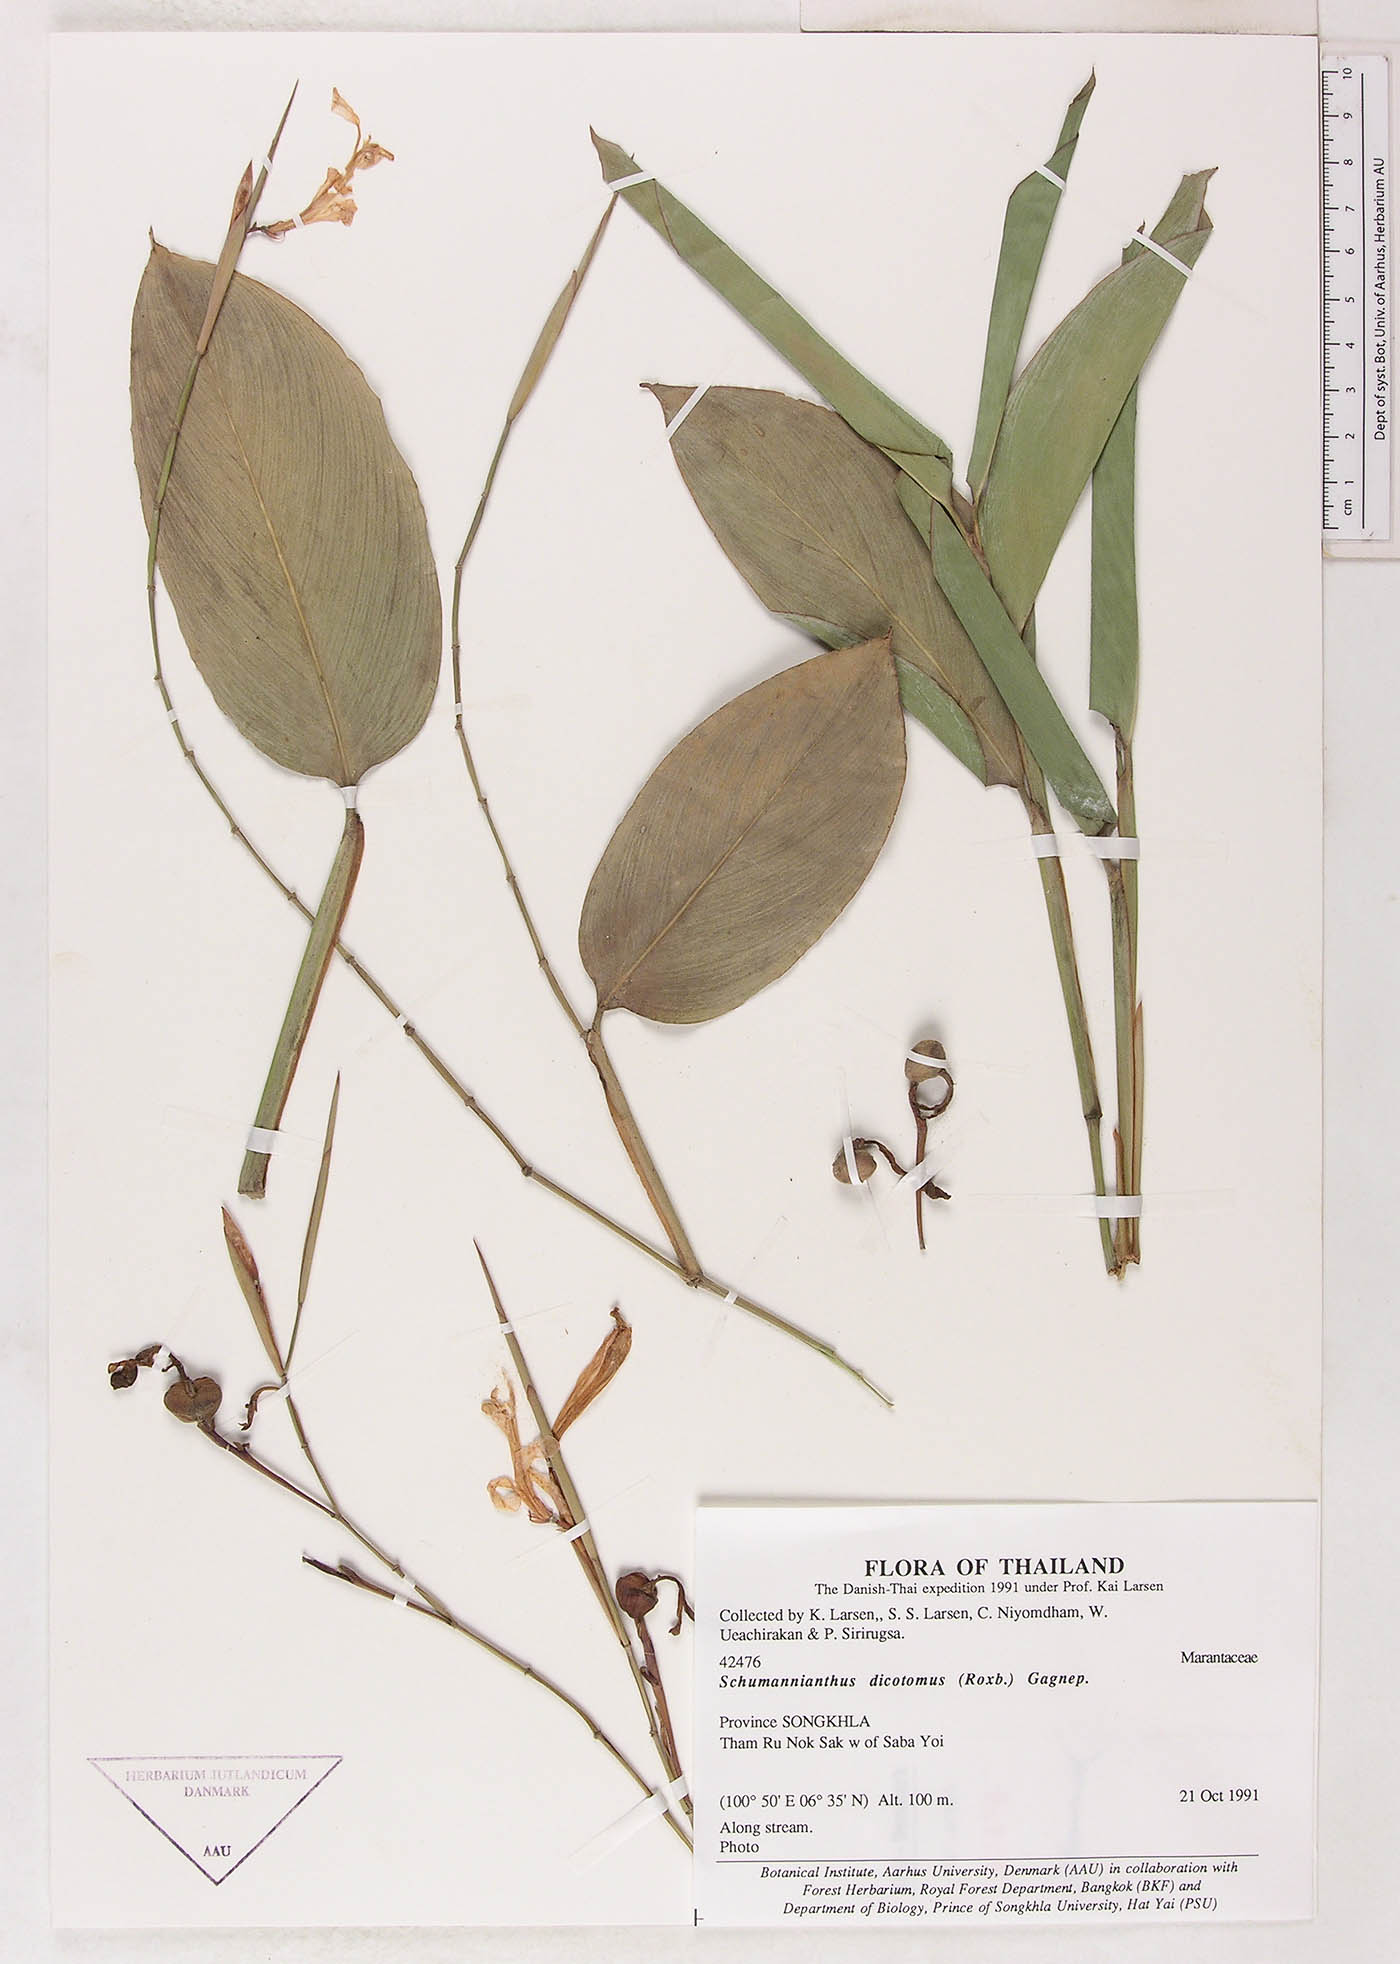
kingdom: Plantae
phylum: Tracheophyta
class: Liliopsida
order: Zingiberales
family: Marantaceae
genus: Schumannianthus
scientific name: Schumannianthus benthamianus
